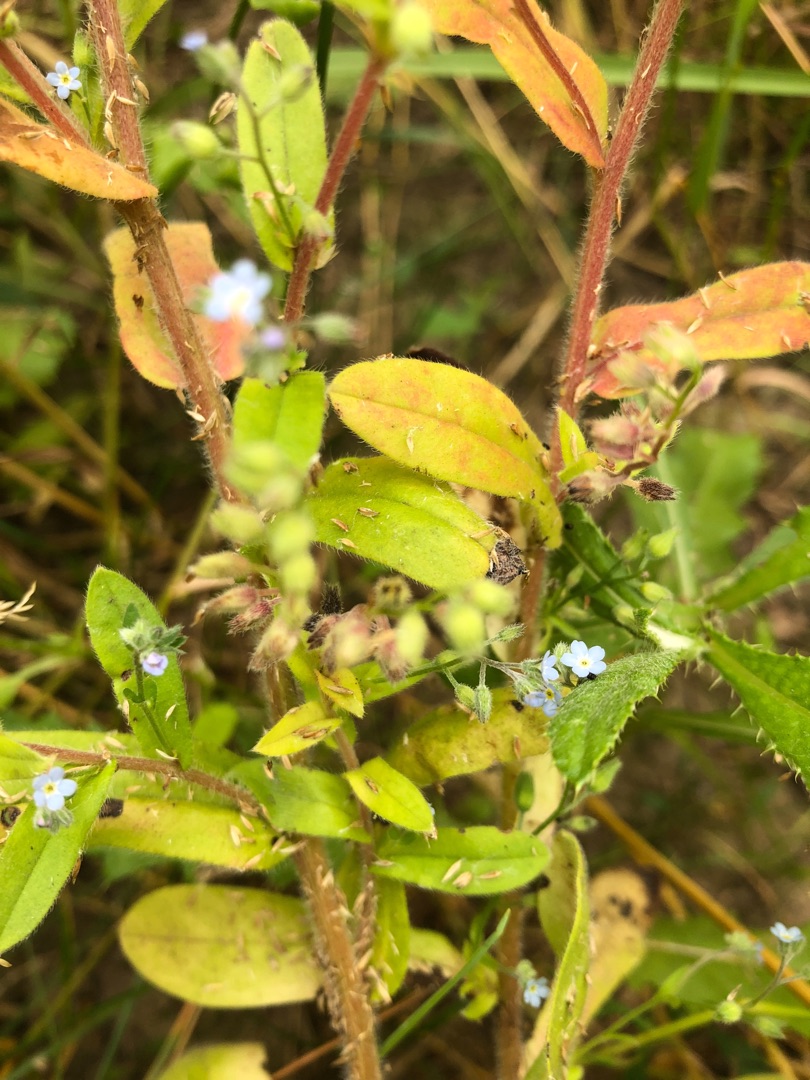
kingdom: Plantae
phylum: Tracheophyta
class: Magnoliopsida
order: Boraginales
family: Boraginaceae
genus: Myosotis
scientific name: Myosotis arvensis
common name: Mark-forglemmigej
